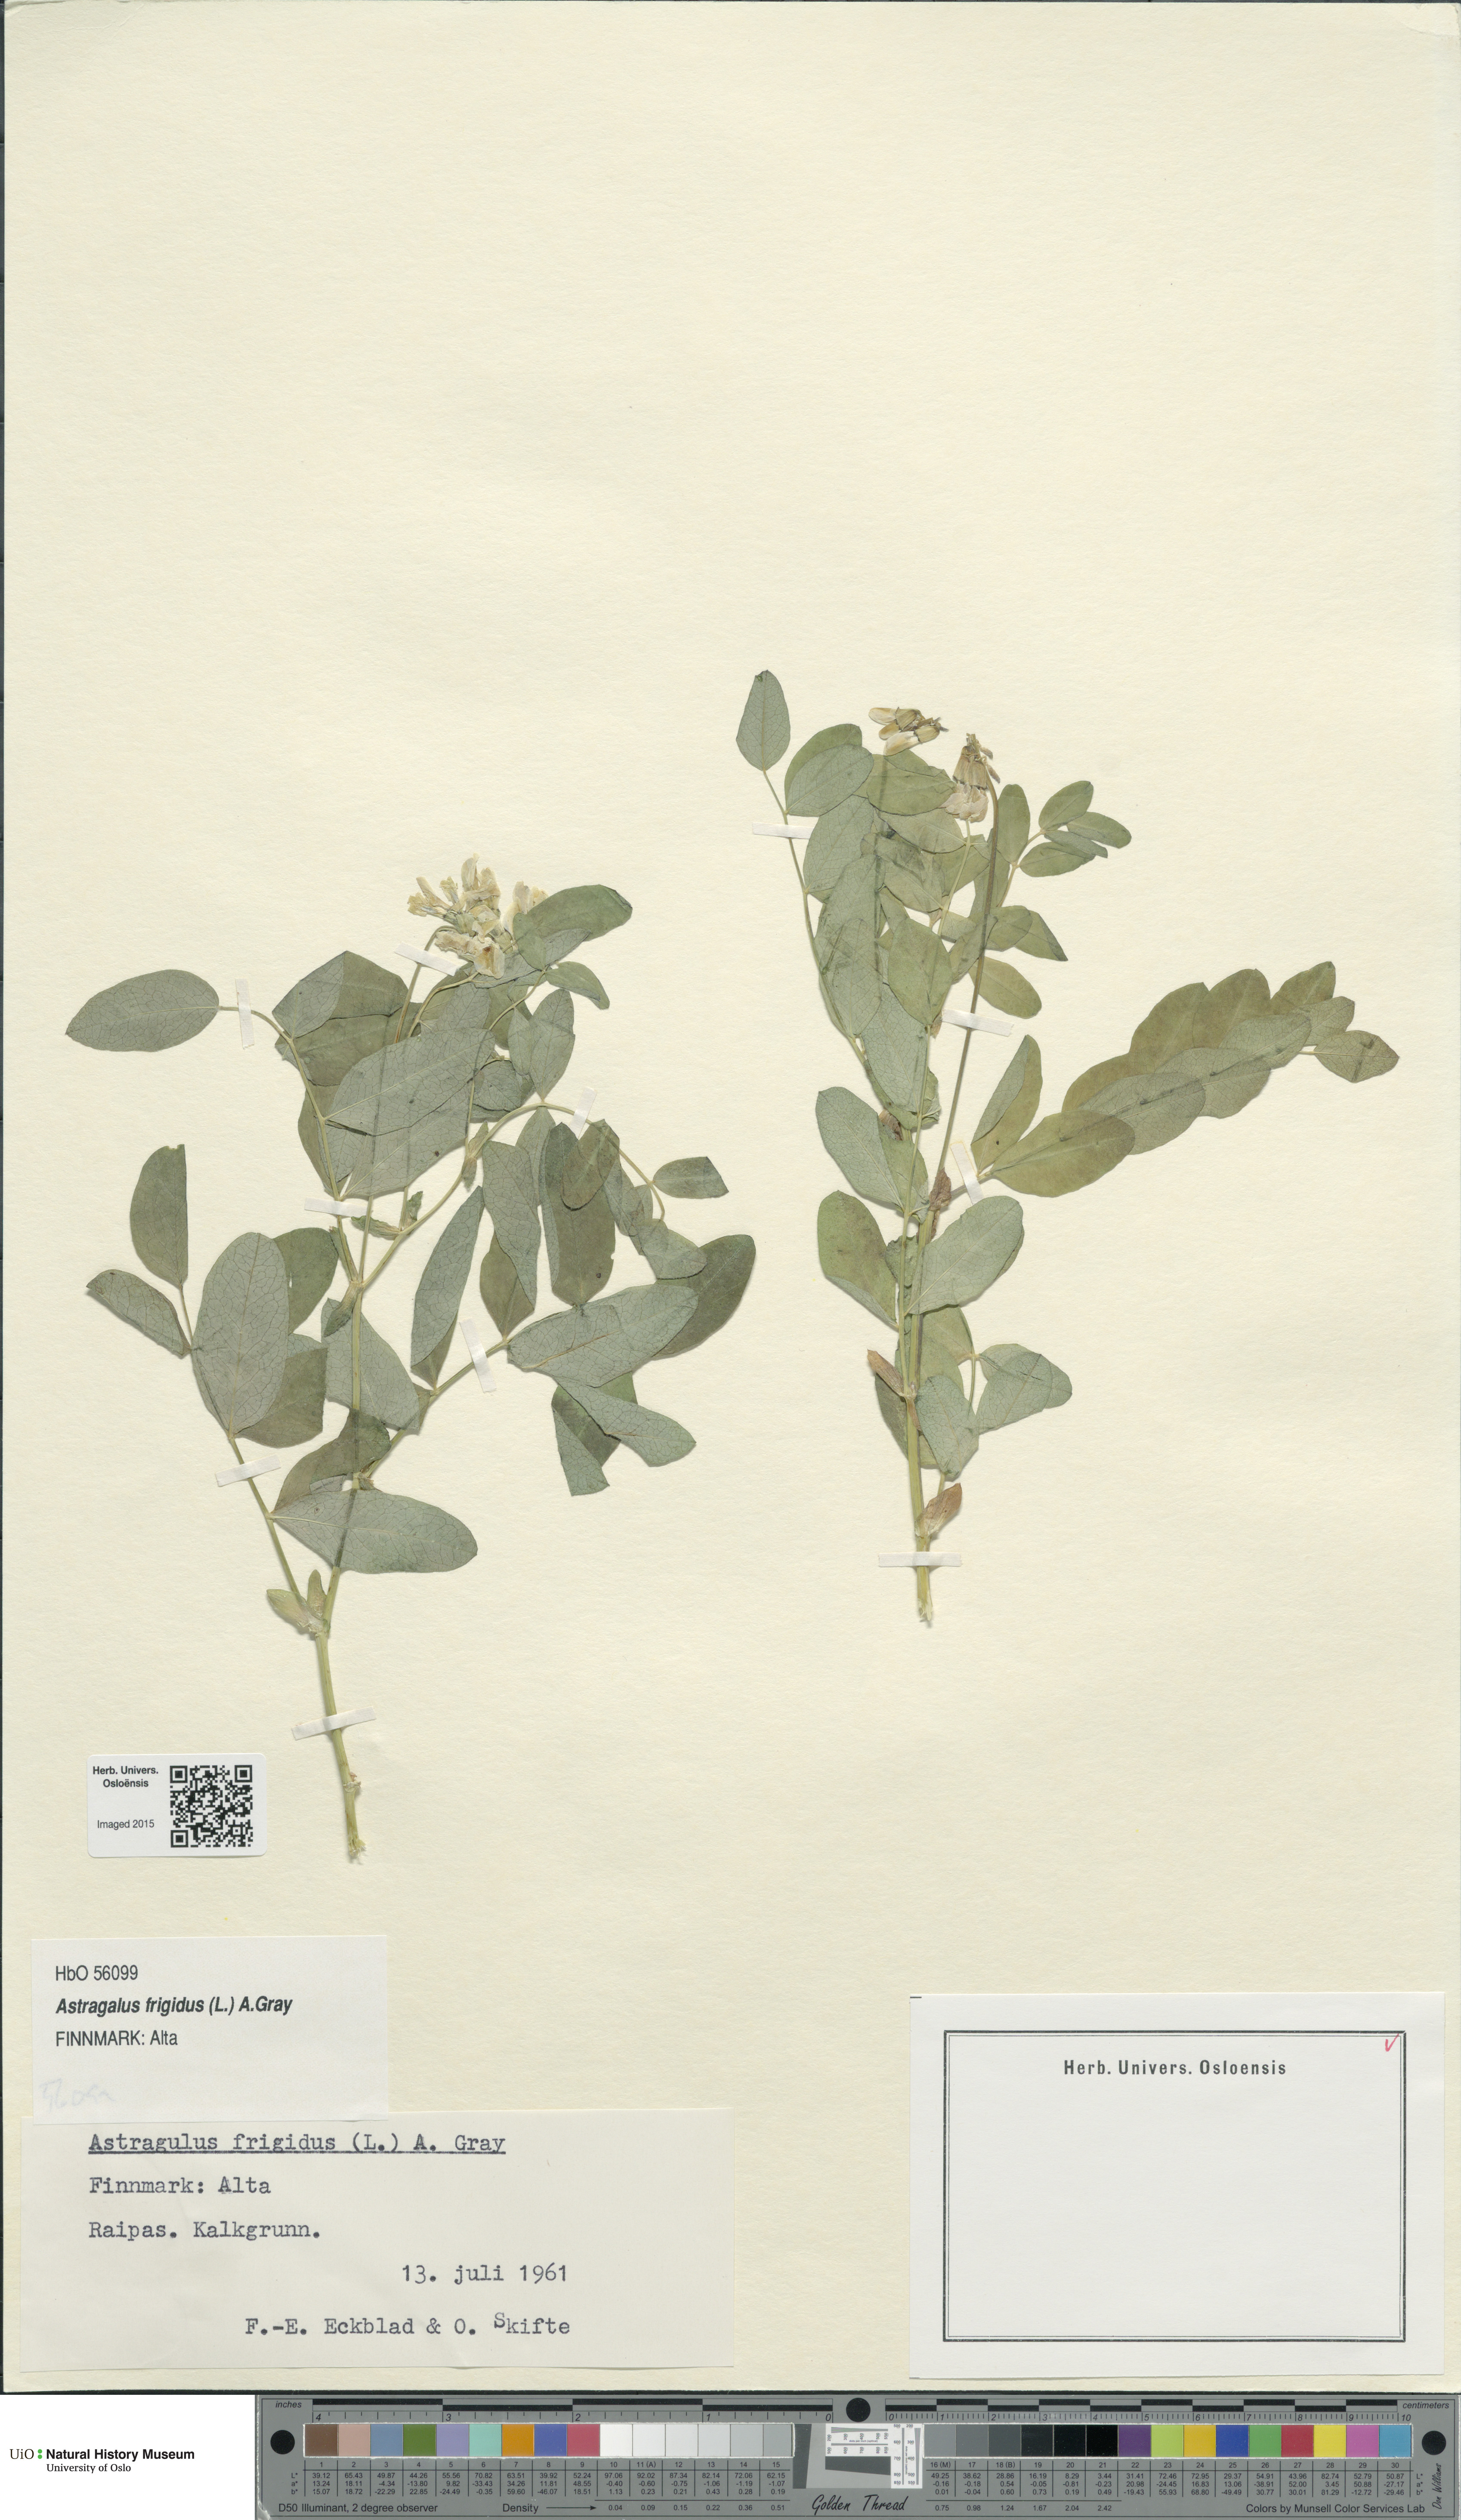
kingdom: Plantae
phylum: Tracheophyta
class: Magnoliopsida
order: Fabales
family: Fabaceae
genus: Astragalus
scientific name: Astragalus frigidus
